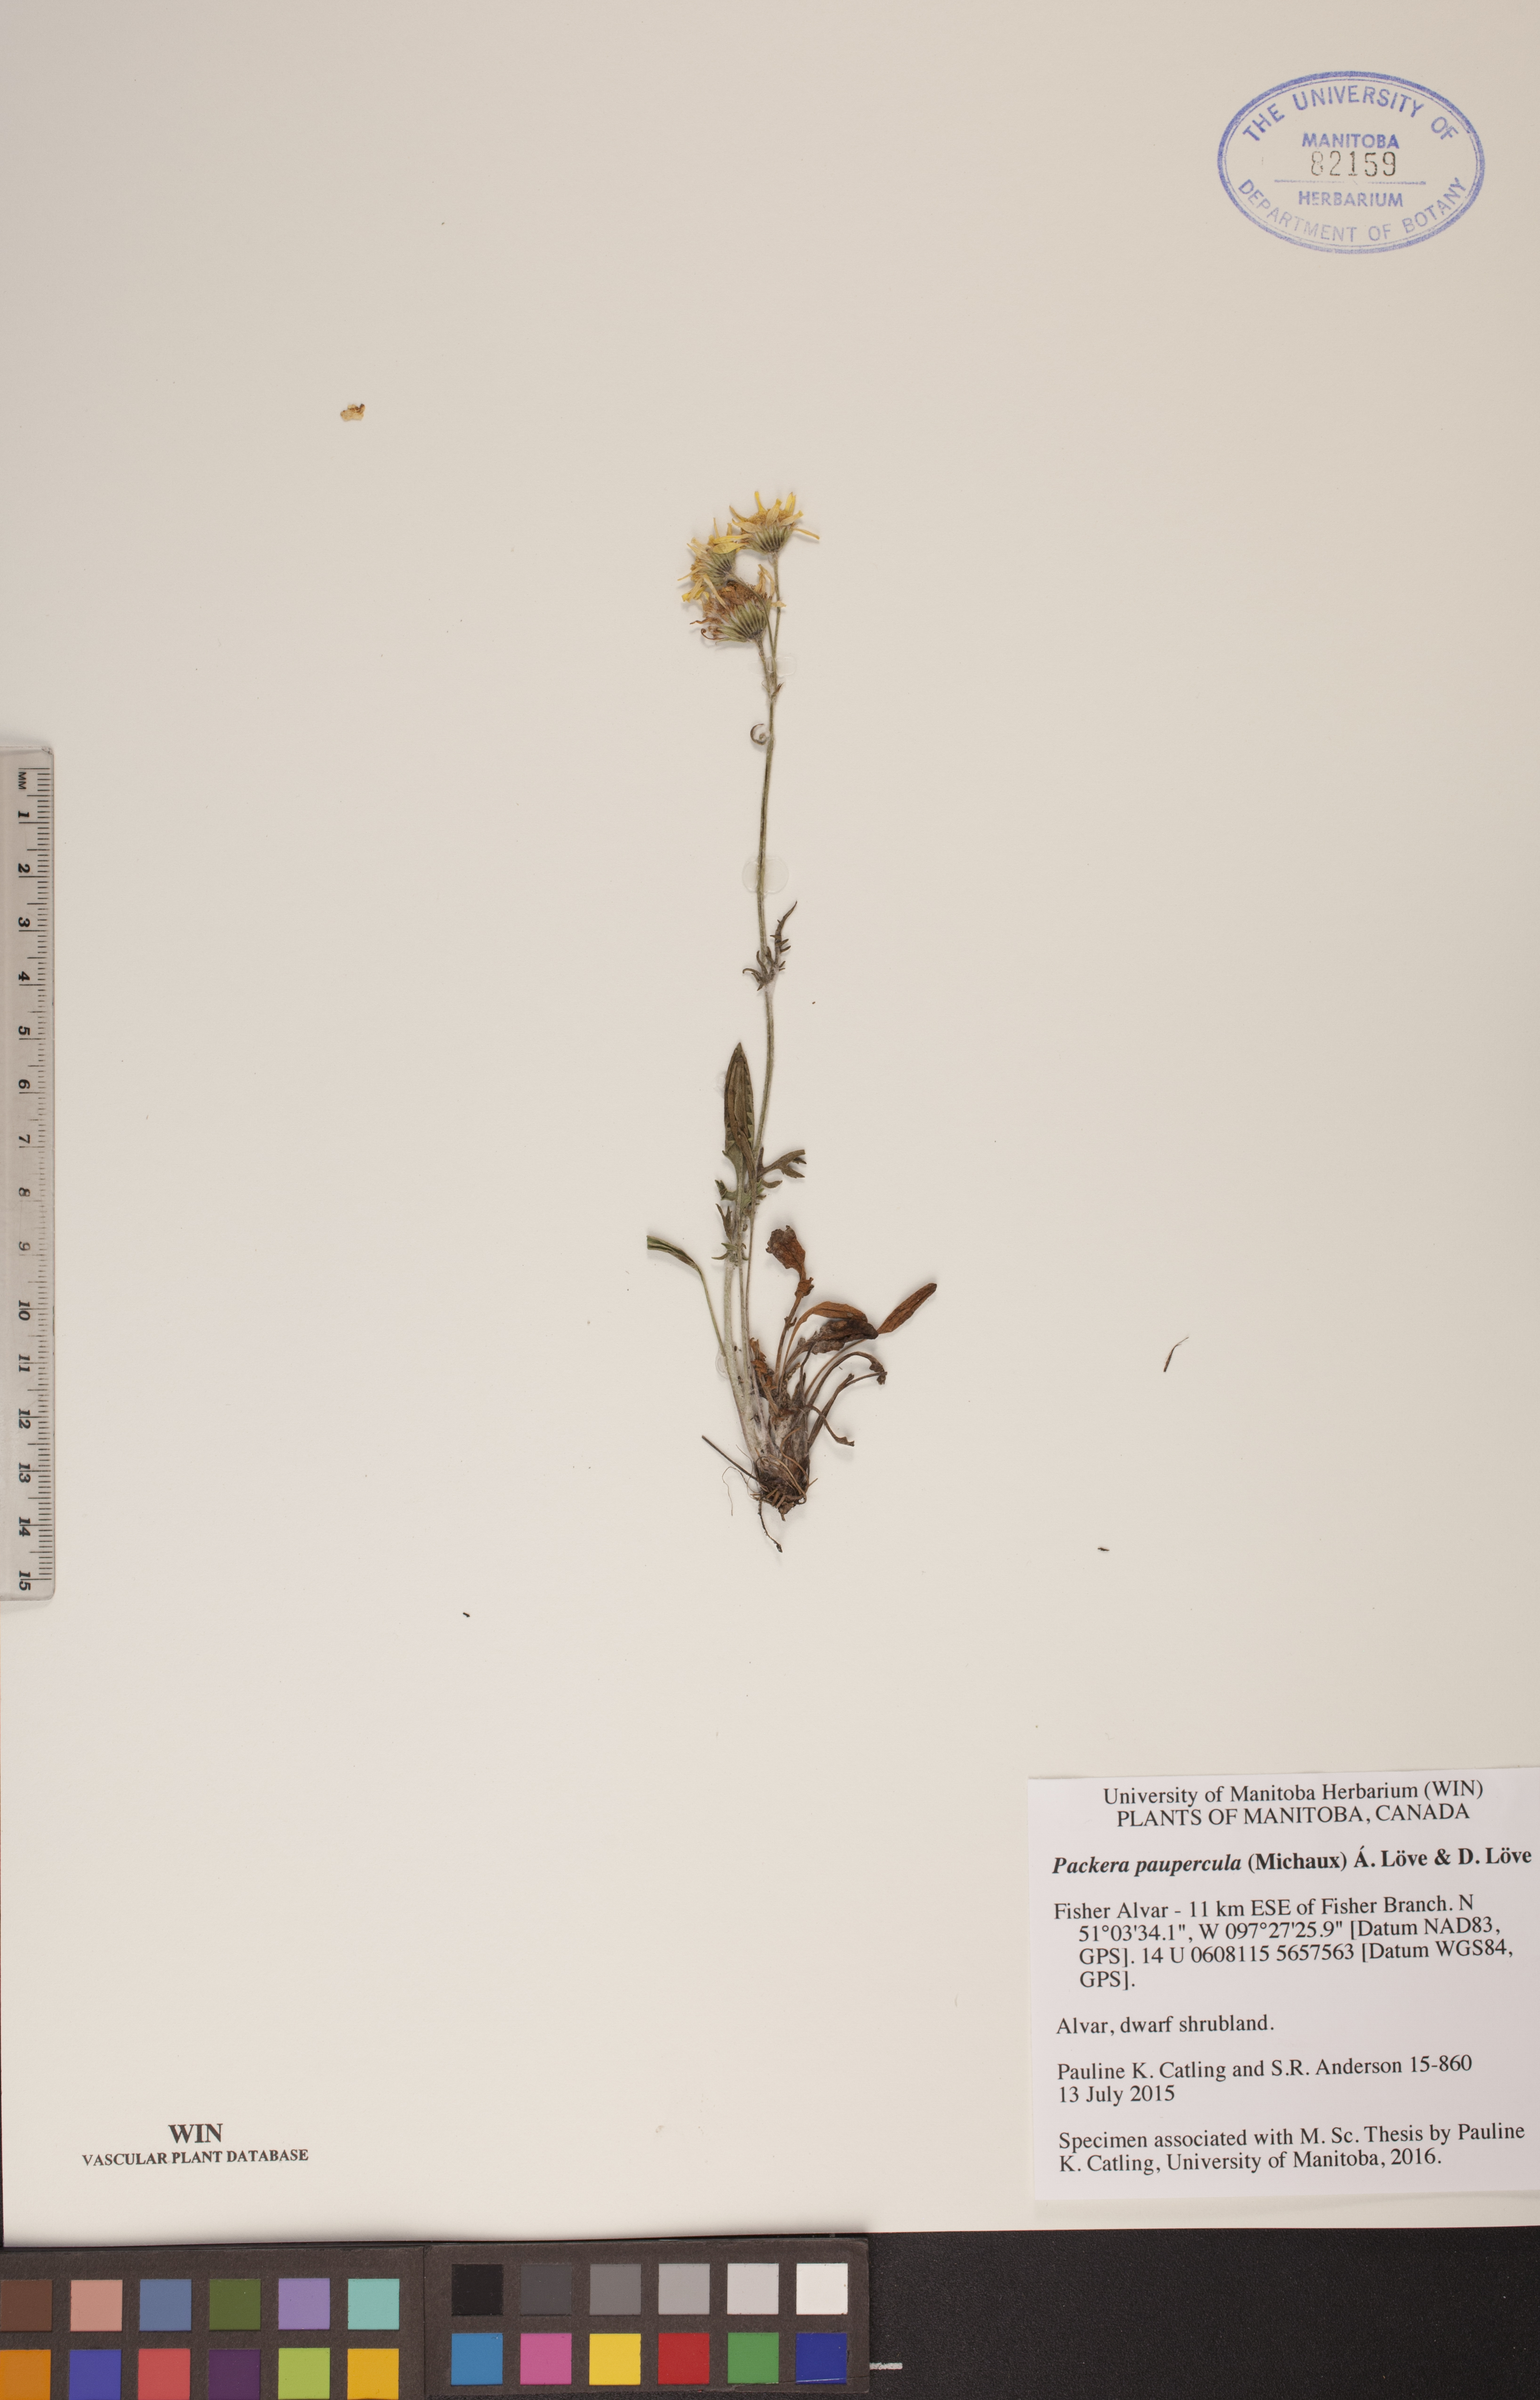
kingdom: Plantae
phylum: Tracheophyta
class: Magnoliopsida
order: Asterales
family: Asteraceae
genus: Packera
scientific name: Packera paupercula
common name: Balsam groundsel
